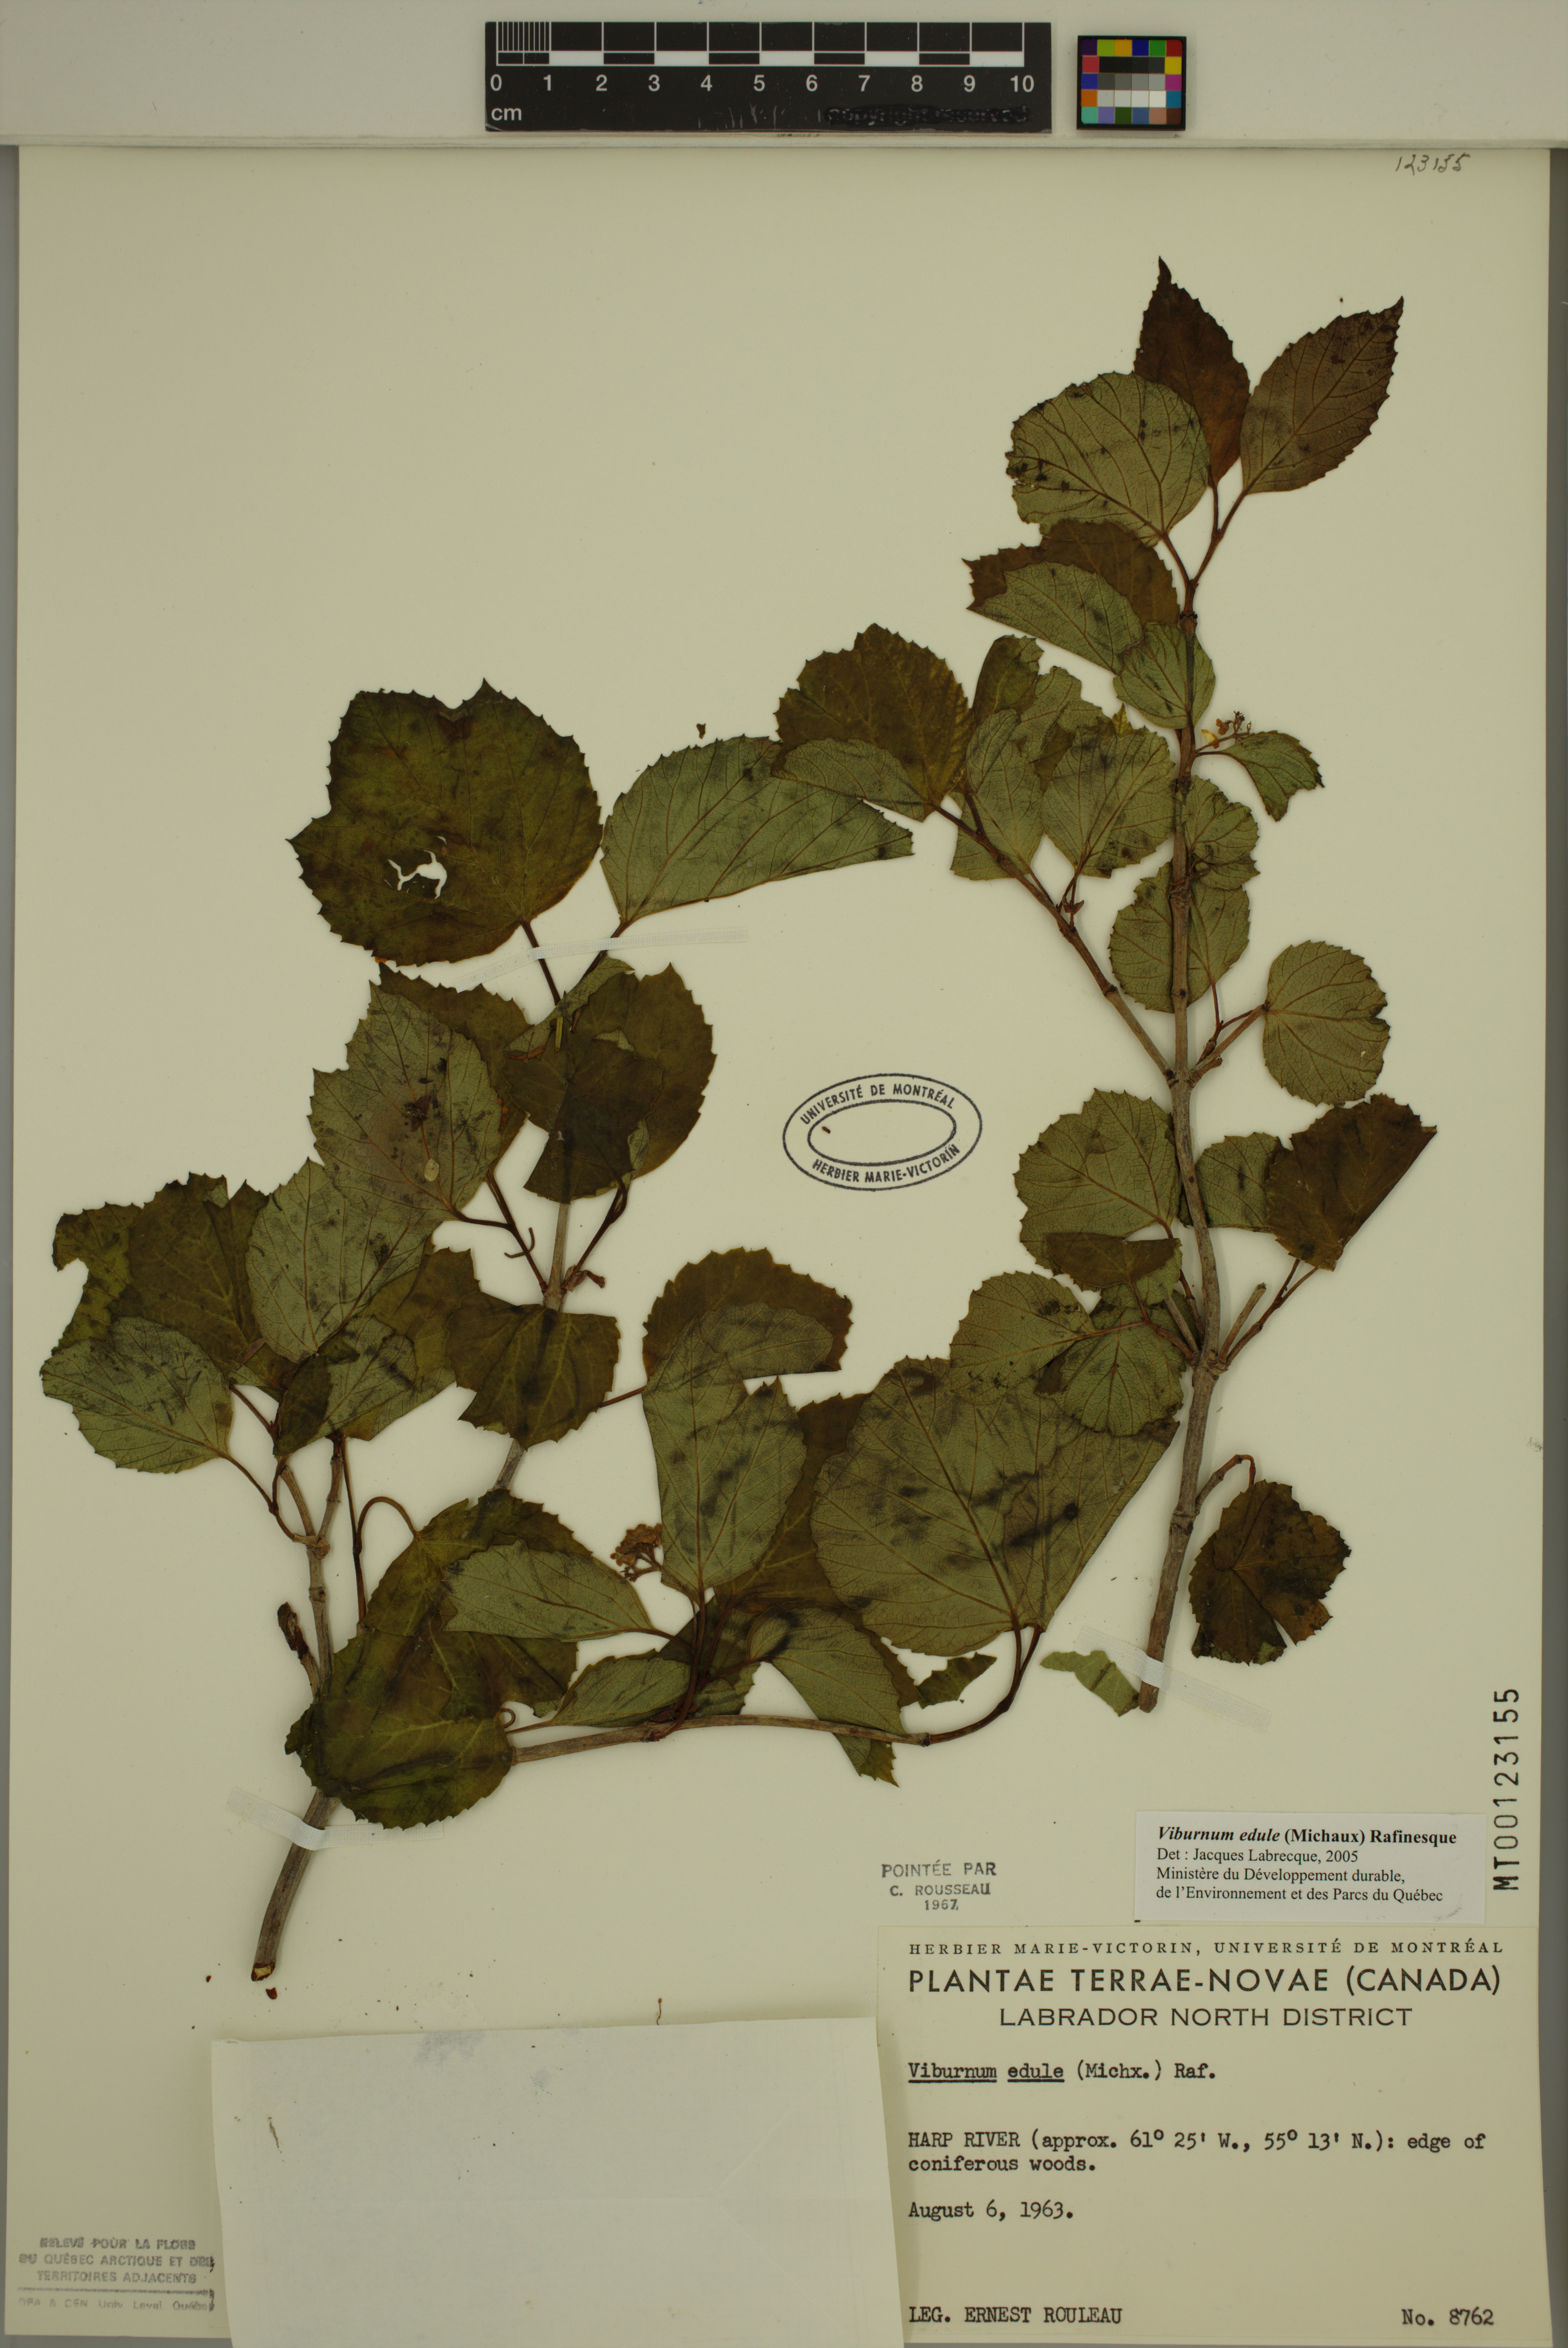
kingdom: Plantae
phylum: Tracheophyta
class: Magnoliopsida
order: Dipsacales
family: Viburnaceae
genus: Viburnum
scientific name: Viburnum edule
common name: Mooseberry
